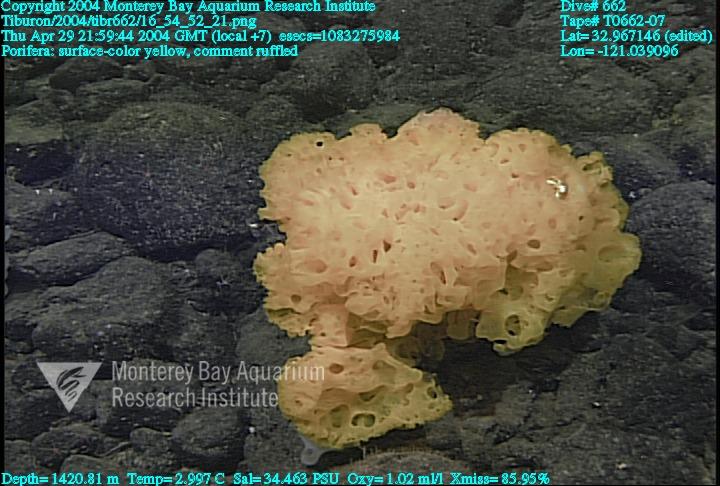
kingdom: Animalia
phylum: Porifera
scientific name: Porifera
